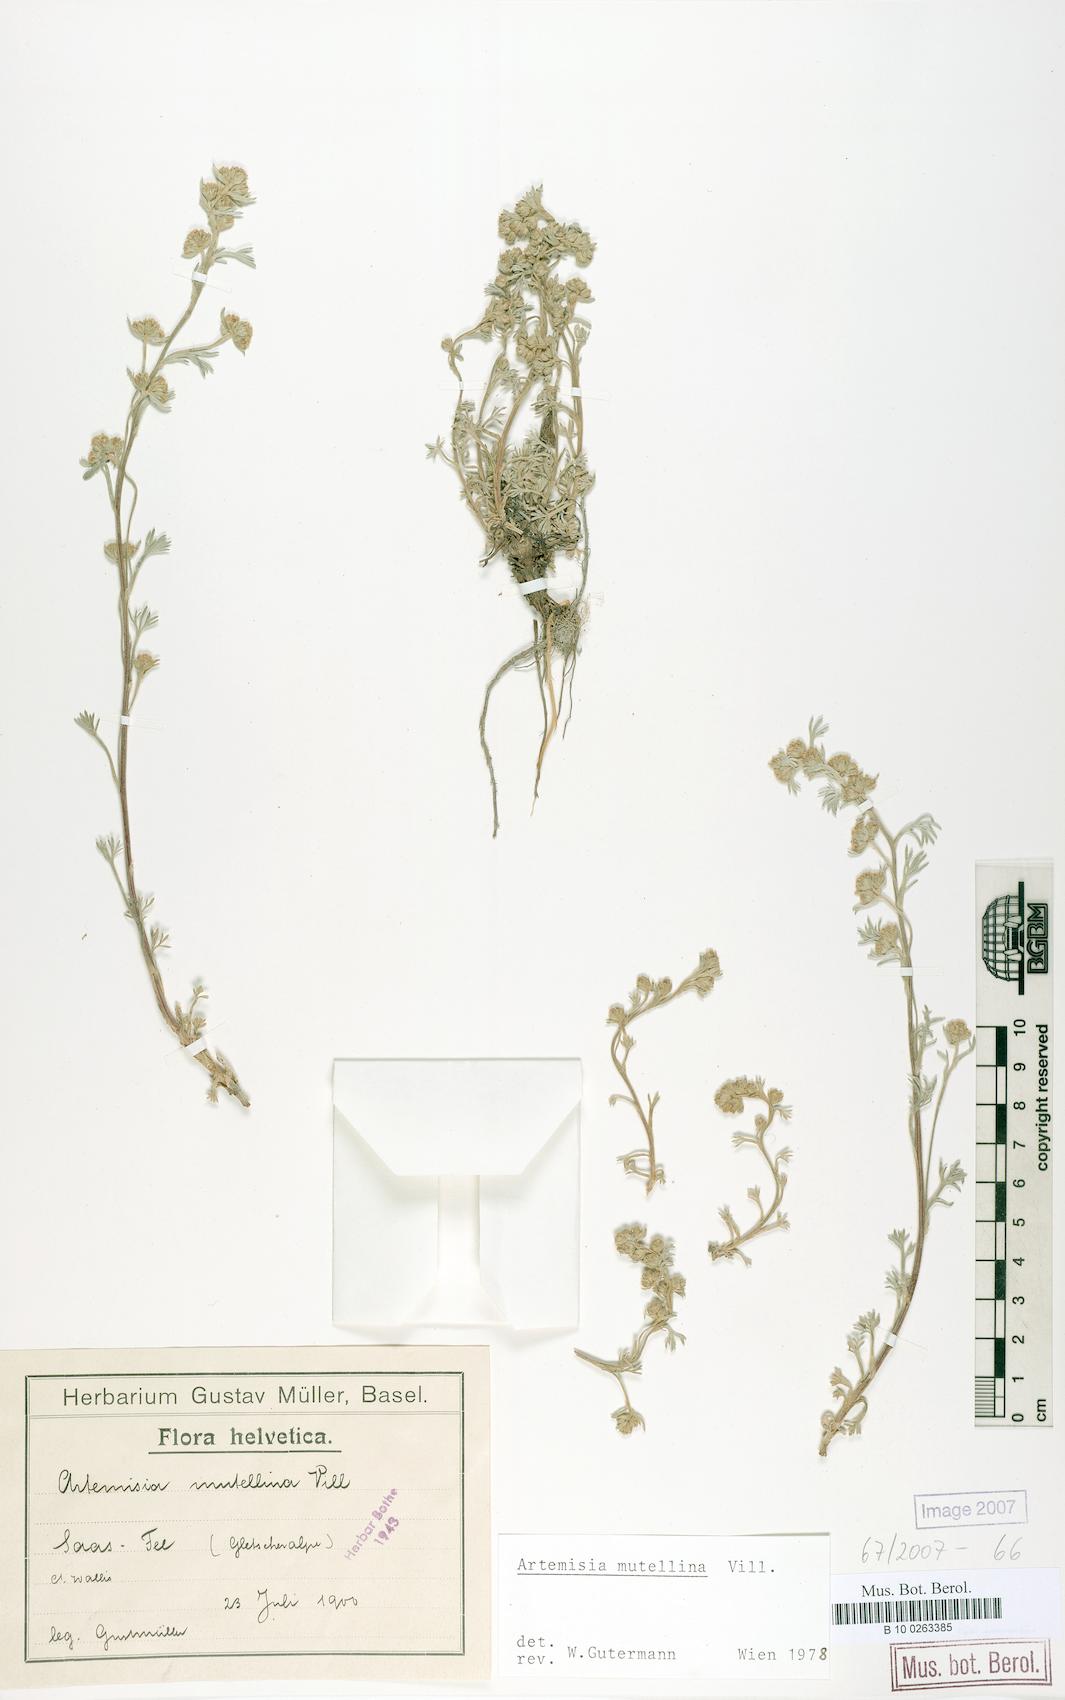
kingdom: Plantae
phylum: Tracheophyta
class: Magnoliopsida
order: Asterales
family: Asteraceae
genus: Artemisia
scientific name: Artemisia mutellina
